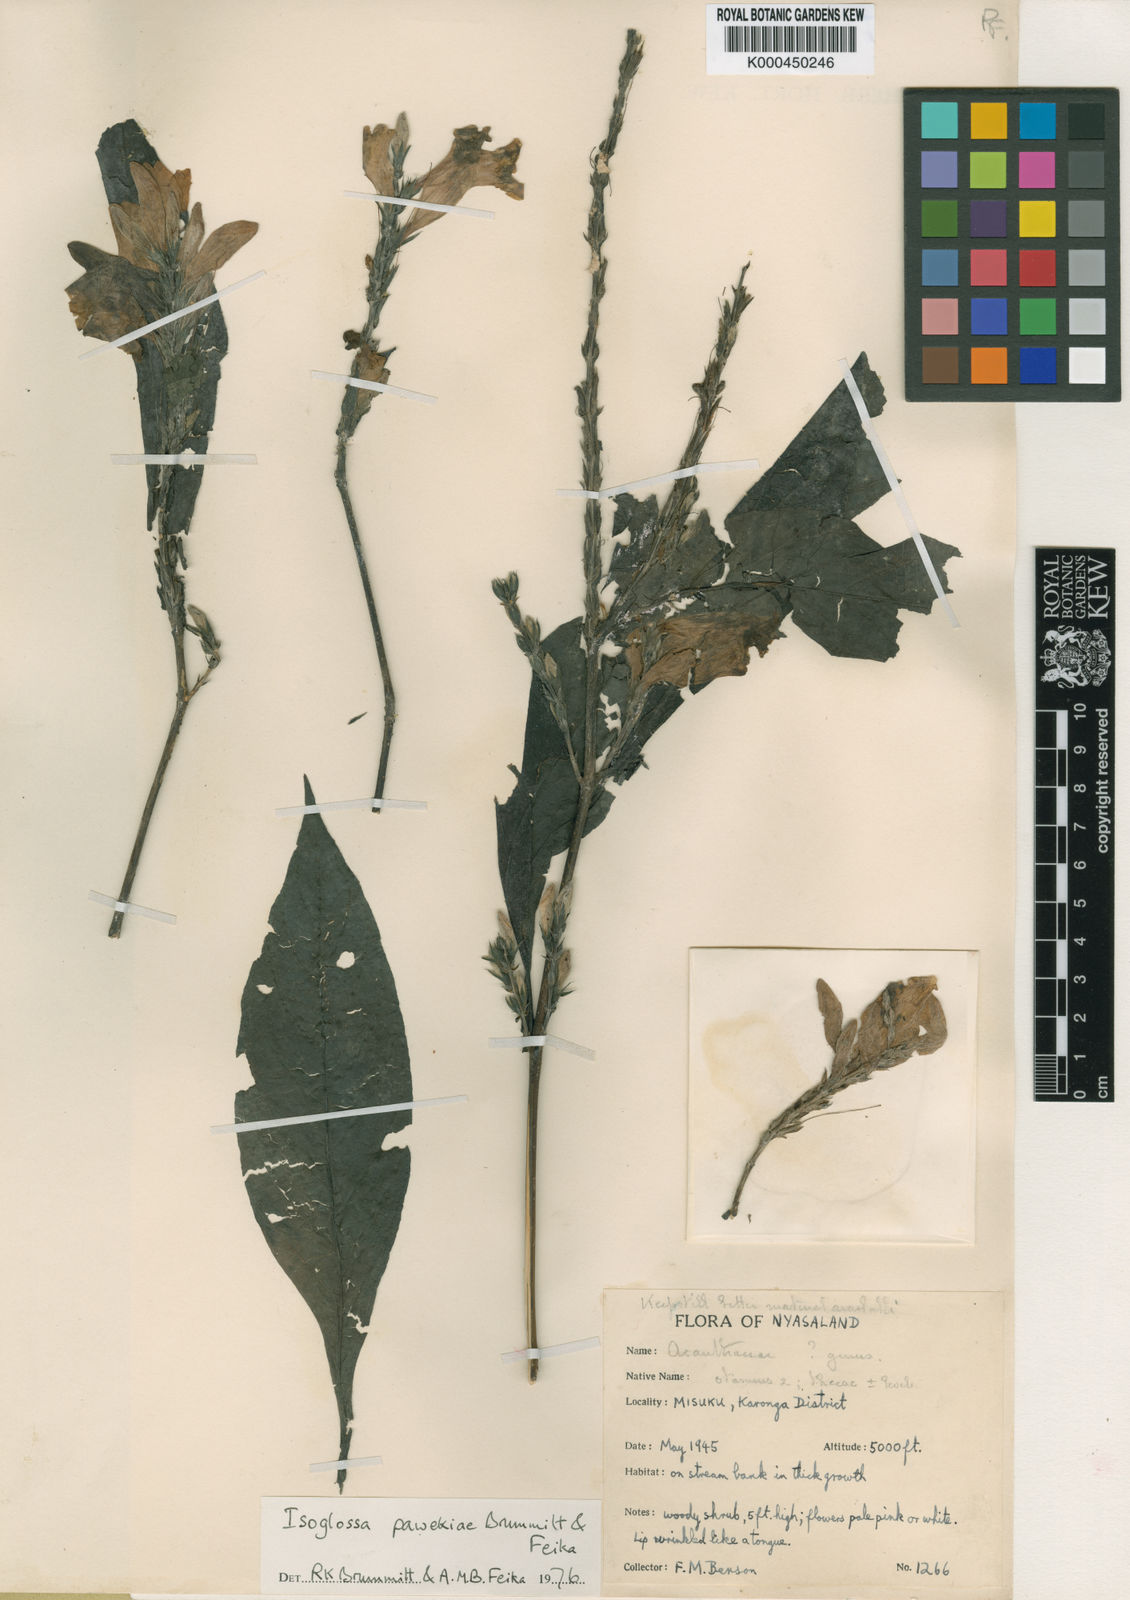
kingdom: Plantae
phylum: Tracheophyta
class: Magnoliopsida
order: Lamiales
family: Acanthaceae
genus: Isoglossa
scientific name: Isoglossa pawekiae
